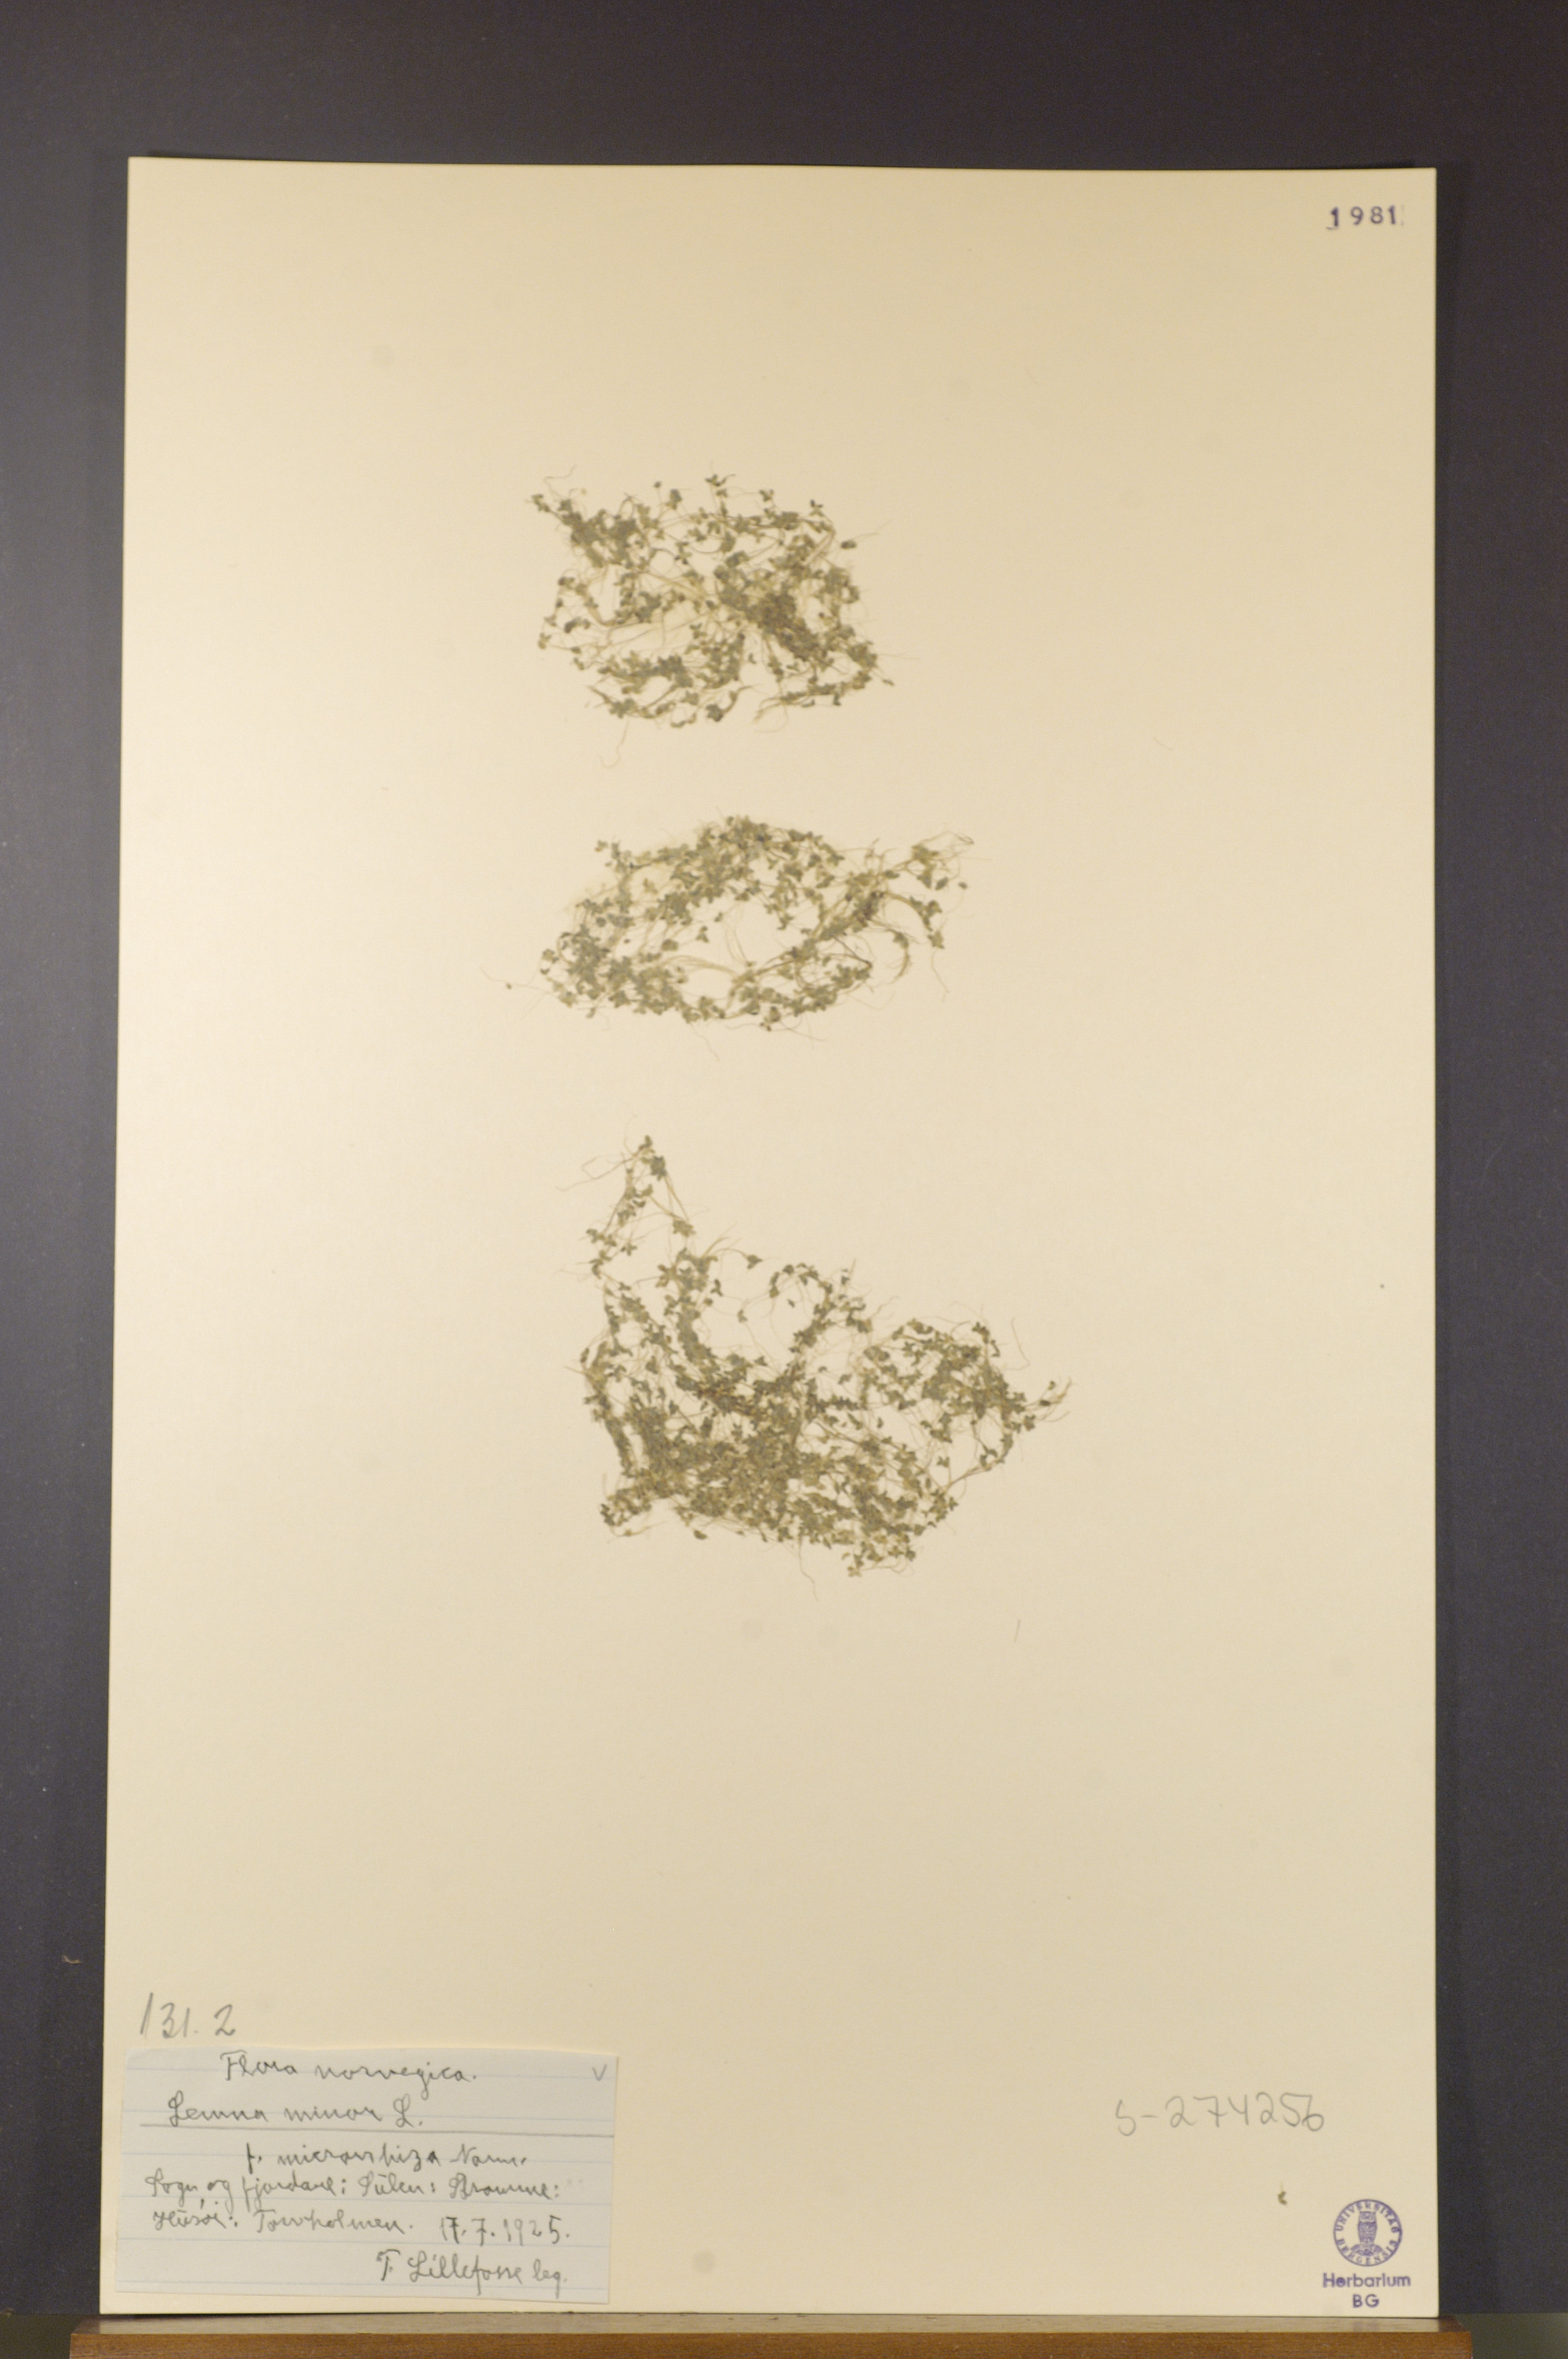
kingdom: Plantae
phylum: Tracheophyta
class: Liliopsida
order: Alismatales
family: Araceae
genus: Lemna
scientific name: Lemna minor
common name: Common duckweed
